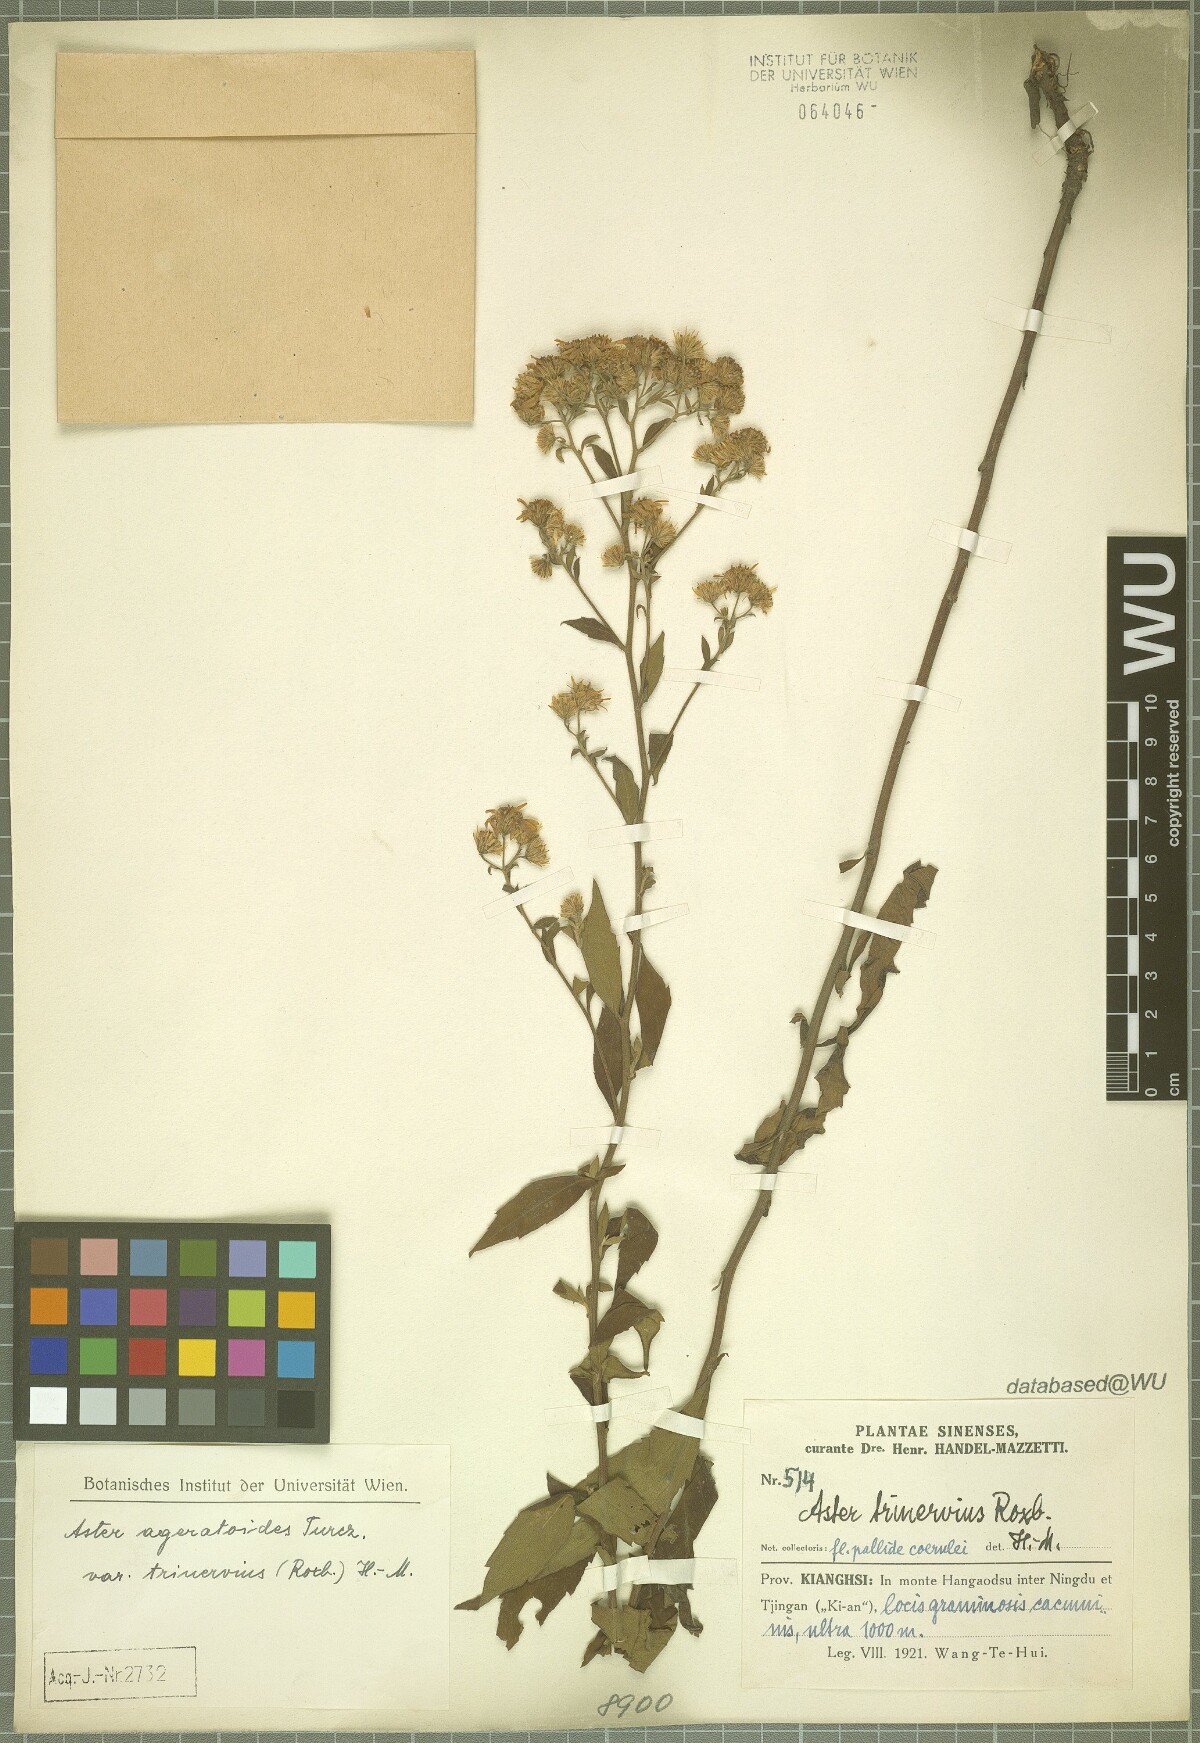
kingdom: Plantae
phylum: Tracheophyta
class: Magnoliopsida
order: Asterales
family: Asteraceae
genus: Aster
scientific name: Aster ageratoides
